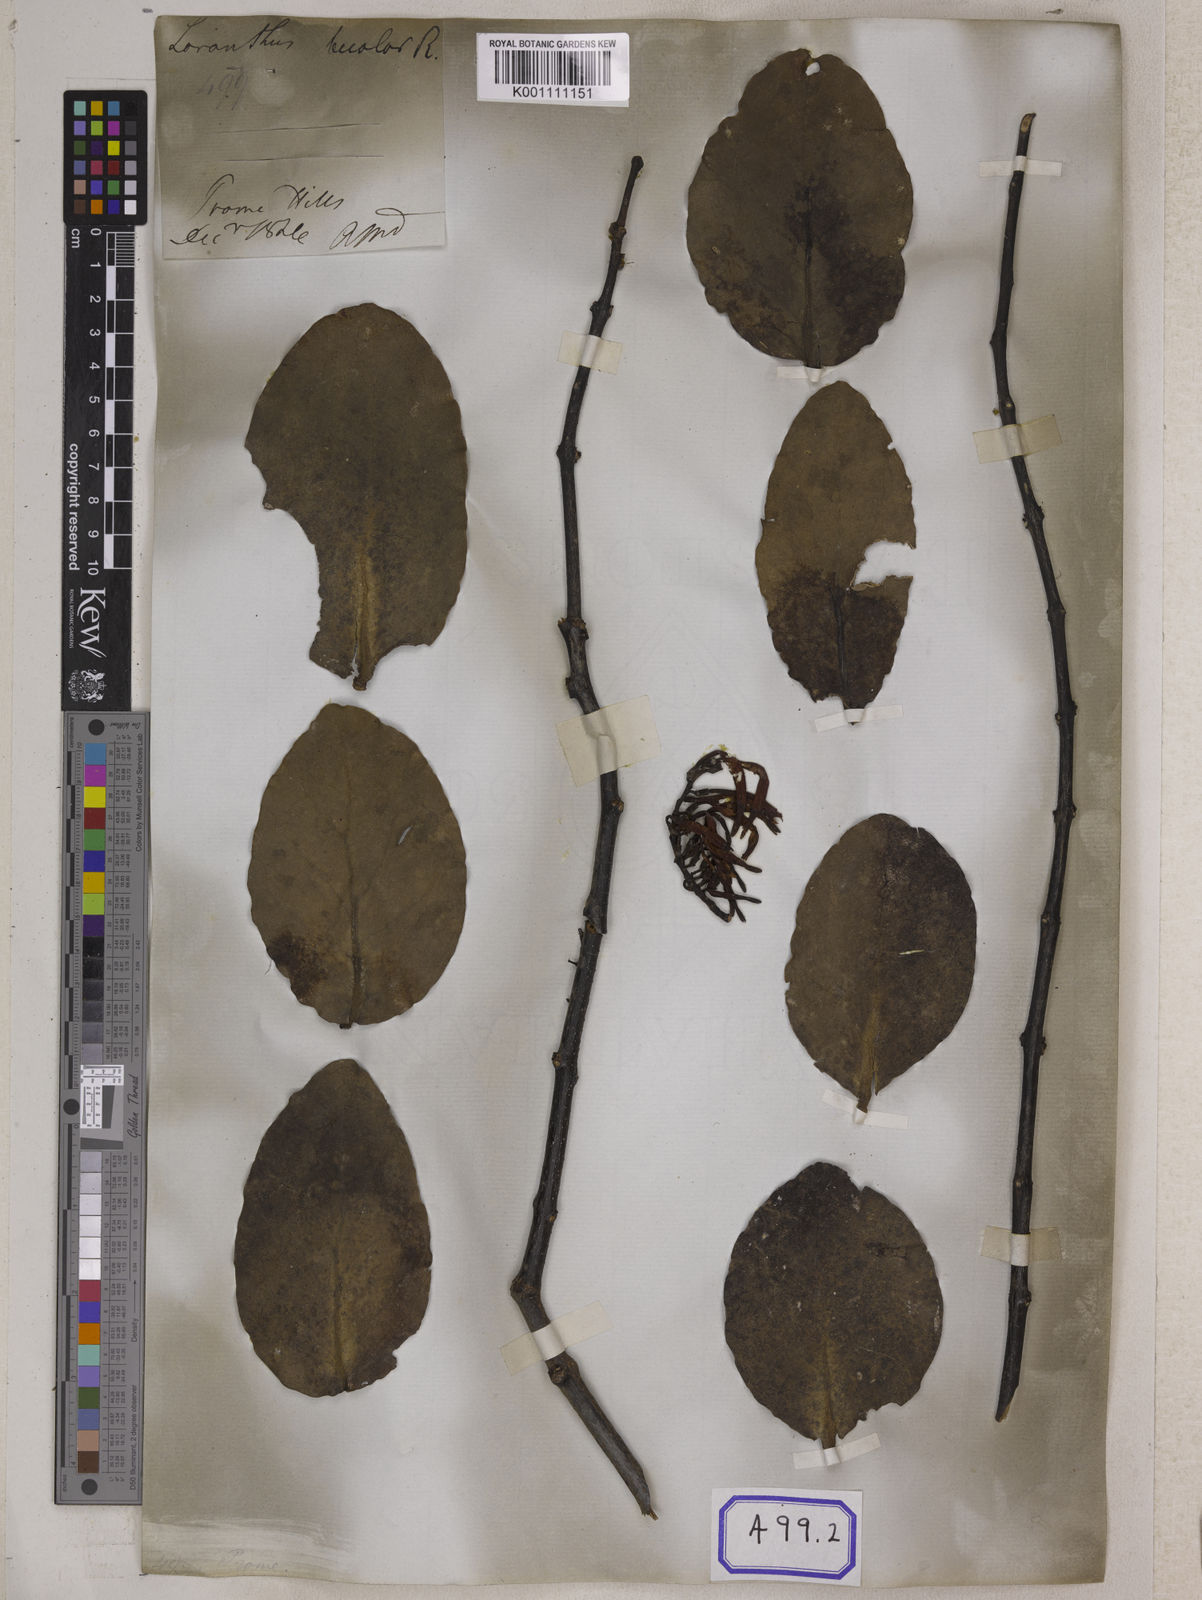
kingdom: Plantae
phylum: Tracheophyta
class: Magnoliopsida
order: Santalales
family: Loranthaceae
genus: Dendrophthoe
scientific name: Dendrophthoe falcata
